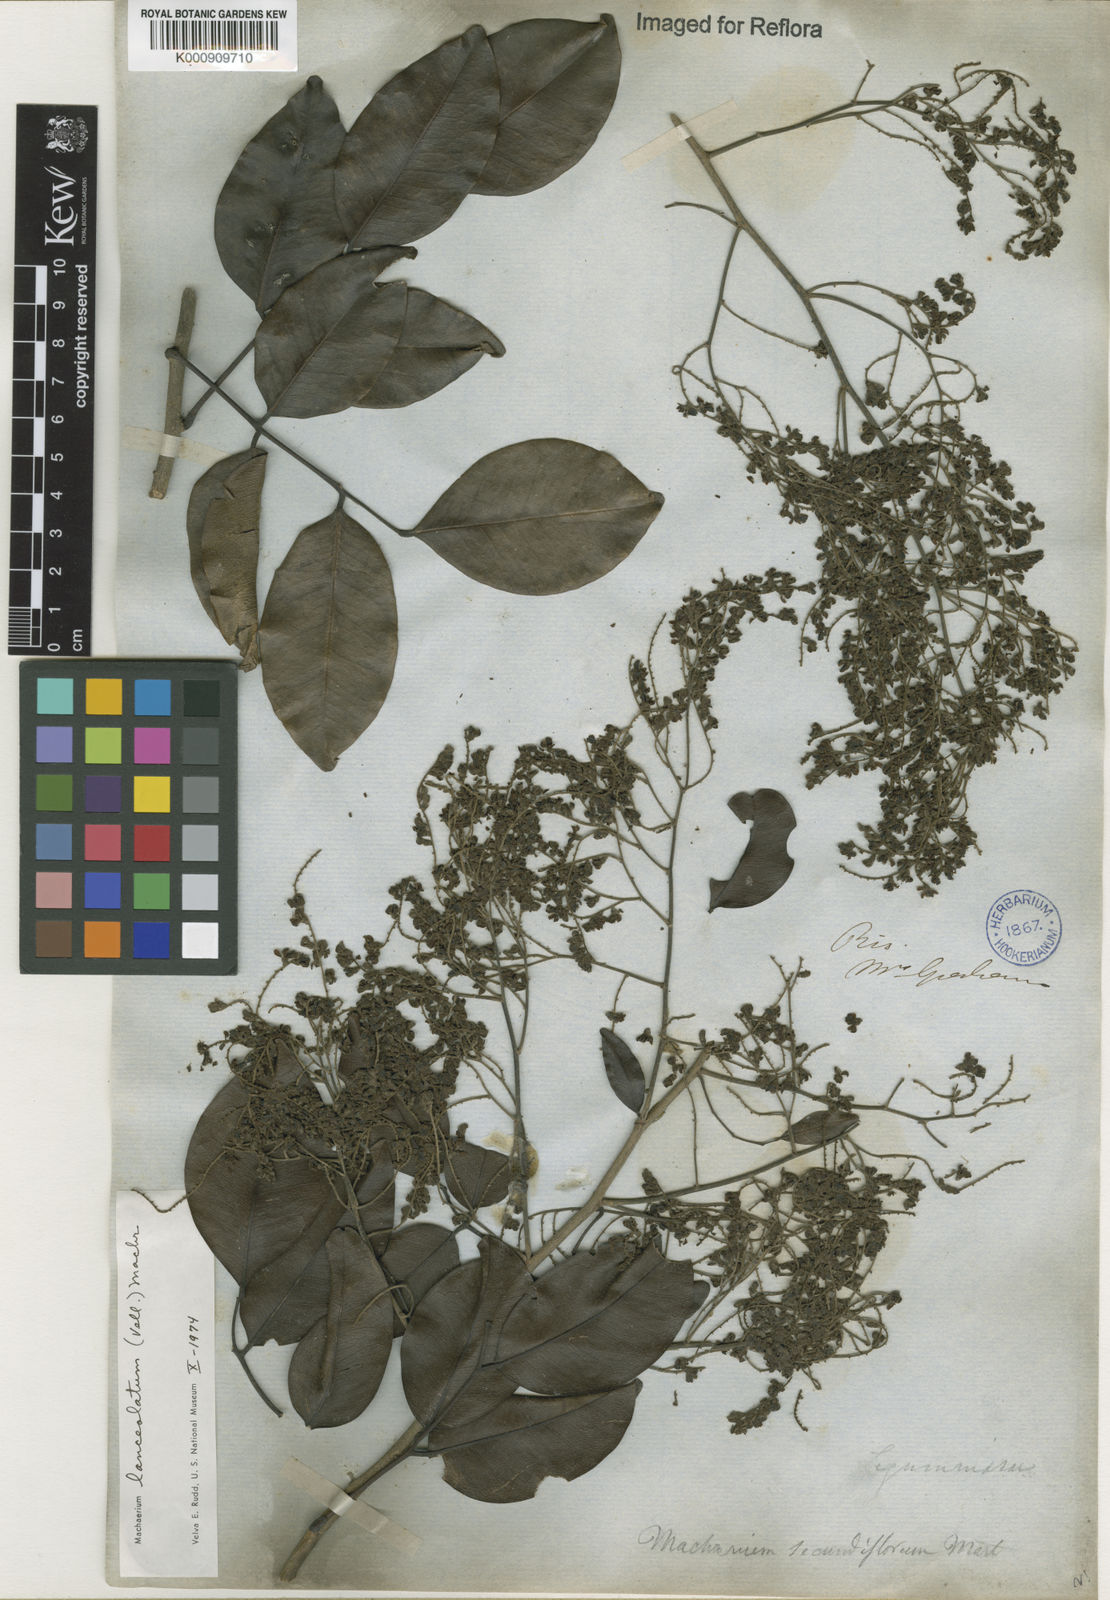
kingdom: Plantae
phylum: Tracheophyta
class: Magnoliopsida
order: Fabales
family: Fabaceae
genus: Machaerium
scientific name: Machaerium lanceolatum
